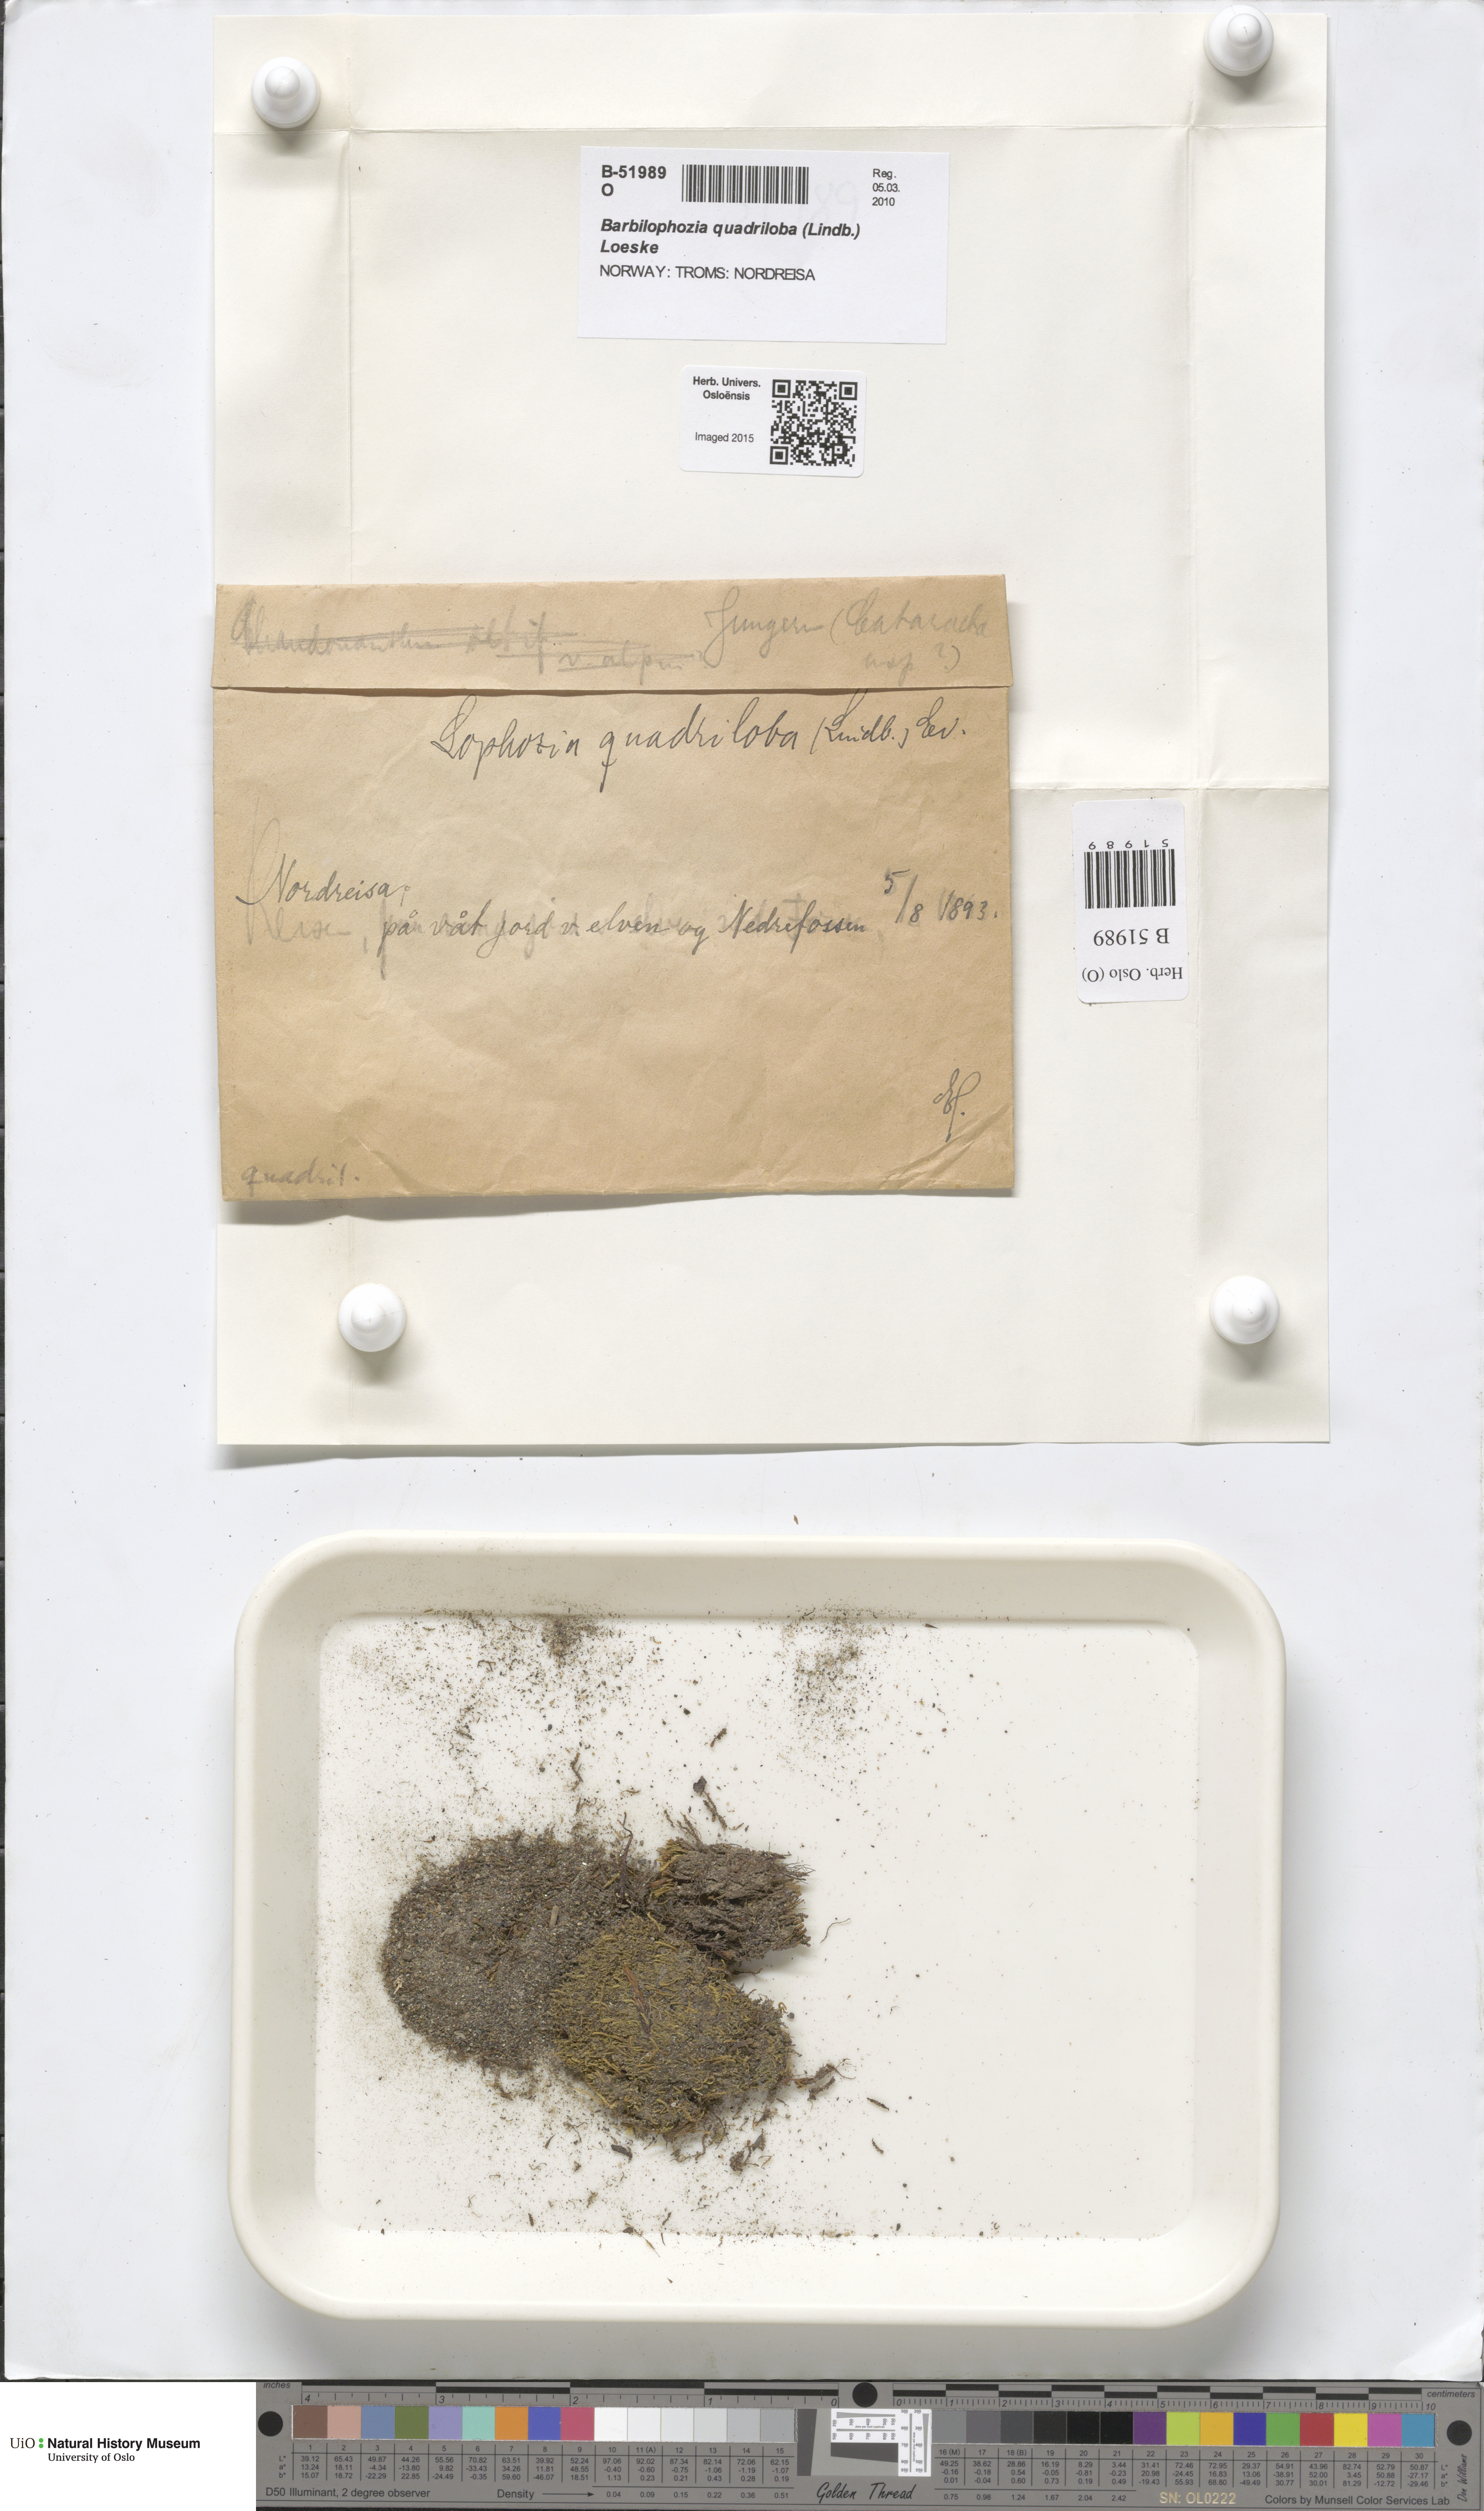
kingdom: Plantae
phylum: Marchantiophyta
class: Jungermanniopsida
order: Jungermanniales
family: Anastrophyllaceae
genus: Schljakovianthus
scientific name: Schljakovianthus quadrilobus
